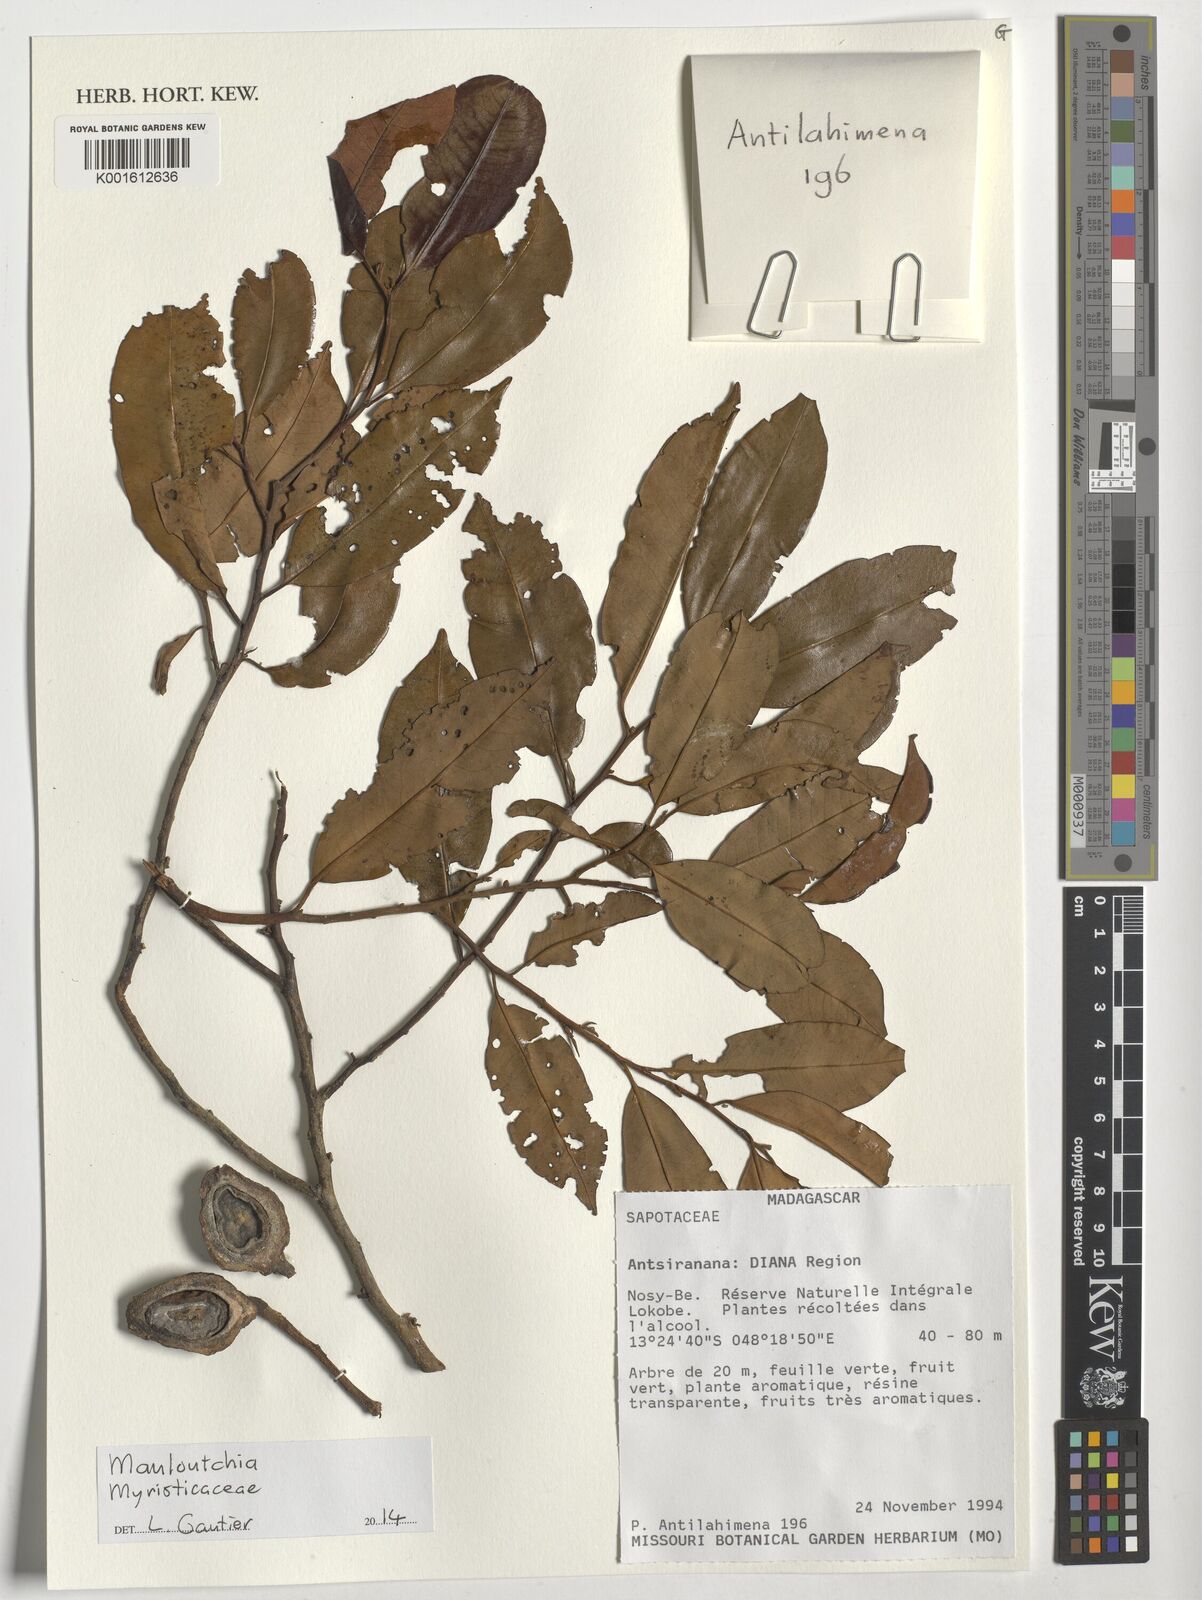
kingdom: Plantae
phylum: Tracheophyta
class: Magnoliopsida
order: Magnoliales
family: Myristicaceae
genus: Mauloutchia
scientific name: Mauloutchia
